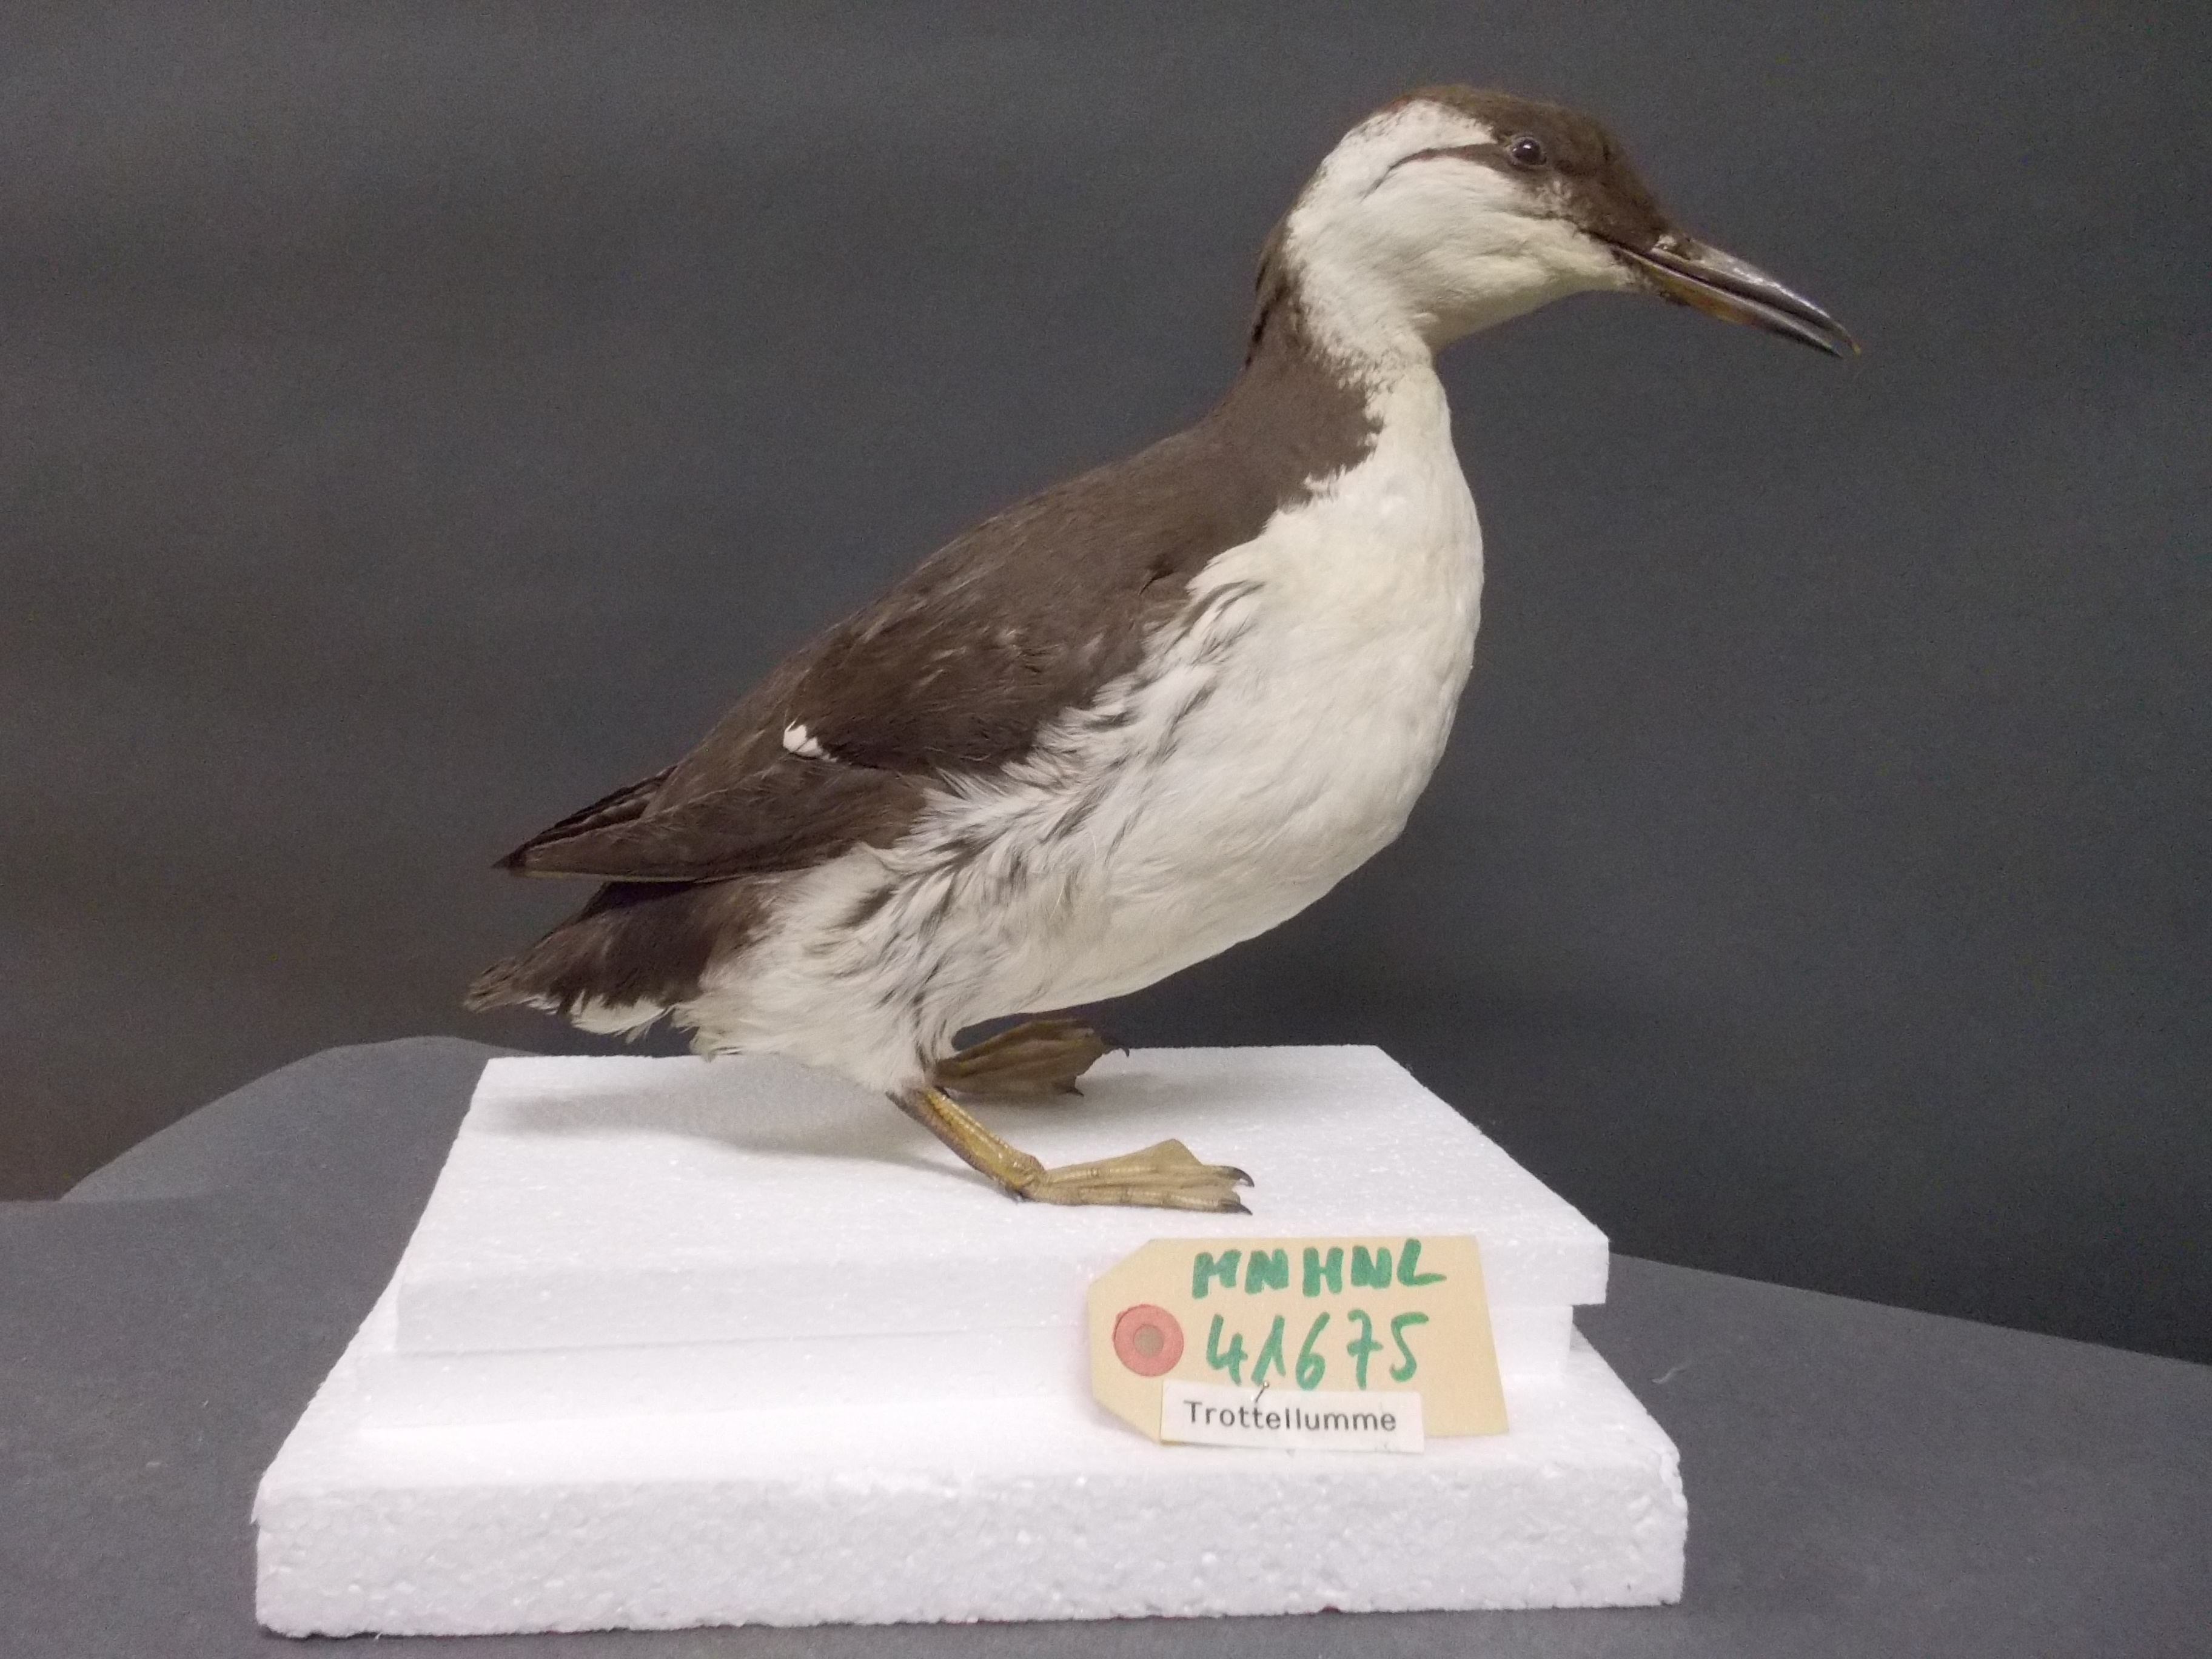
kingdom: Animalia
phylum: Chordata
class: Aves
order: Charadriiformes
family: Alcidae
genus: Uria
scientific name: Uria aalge
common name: Common murre
